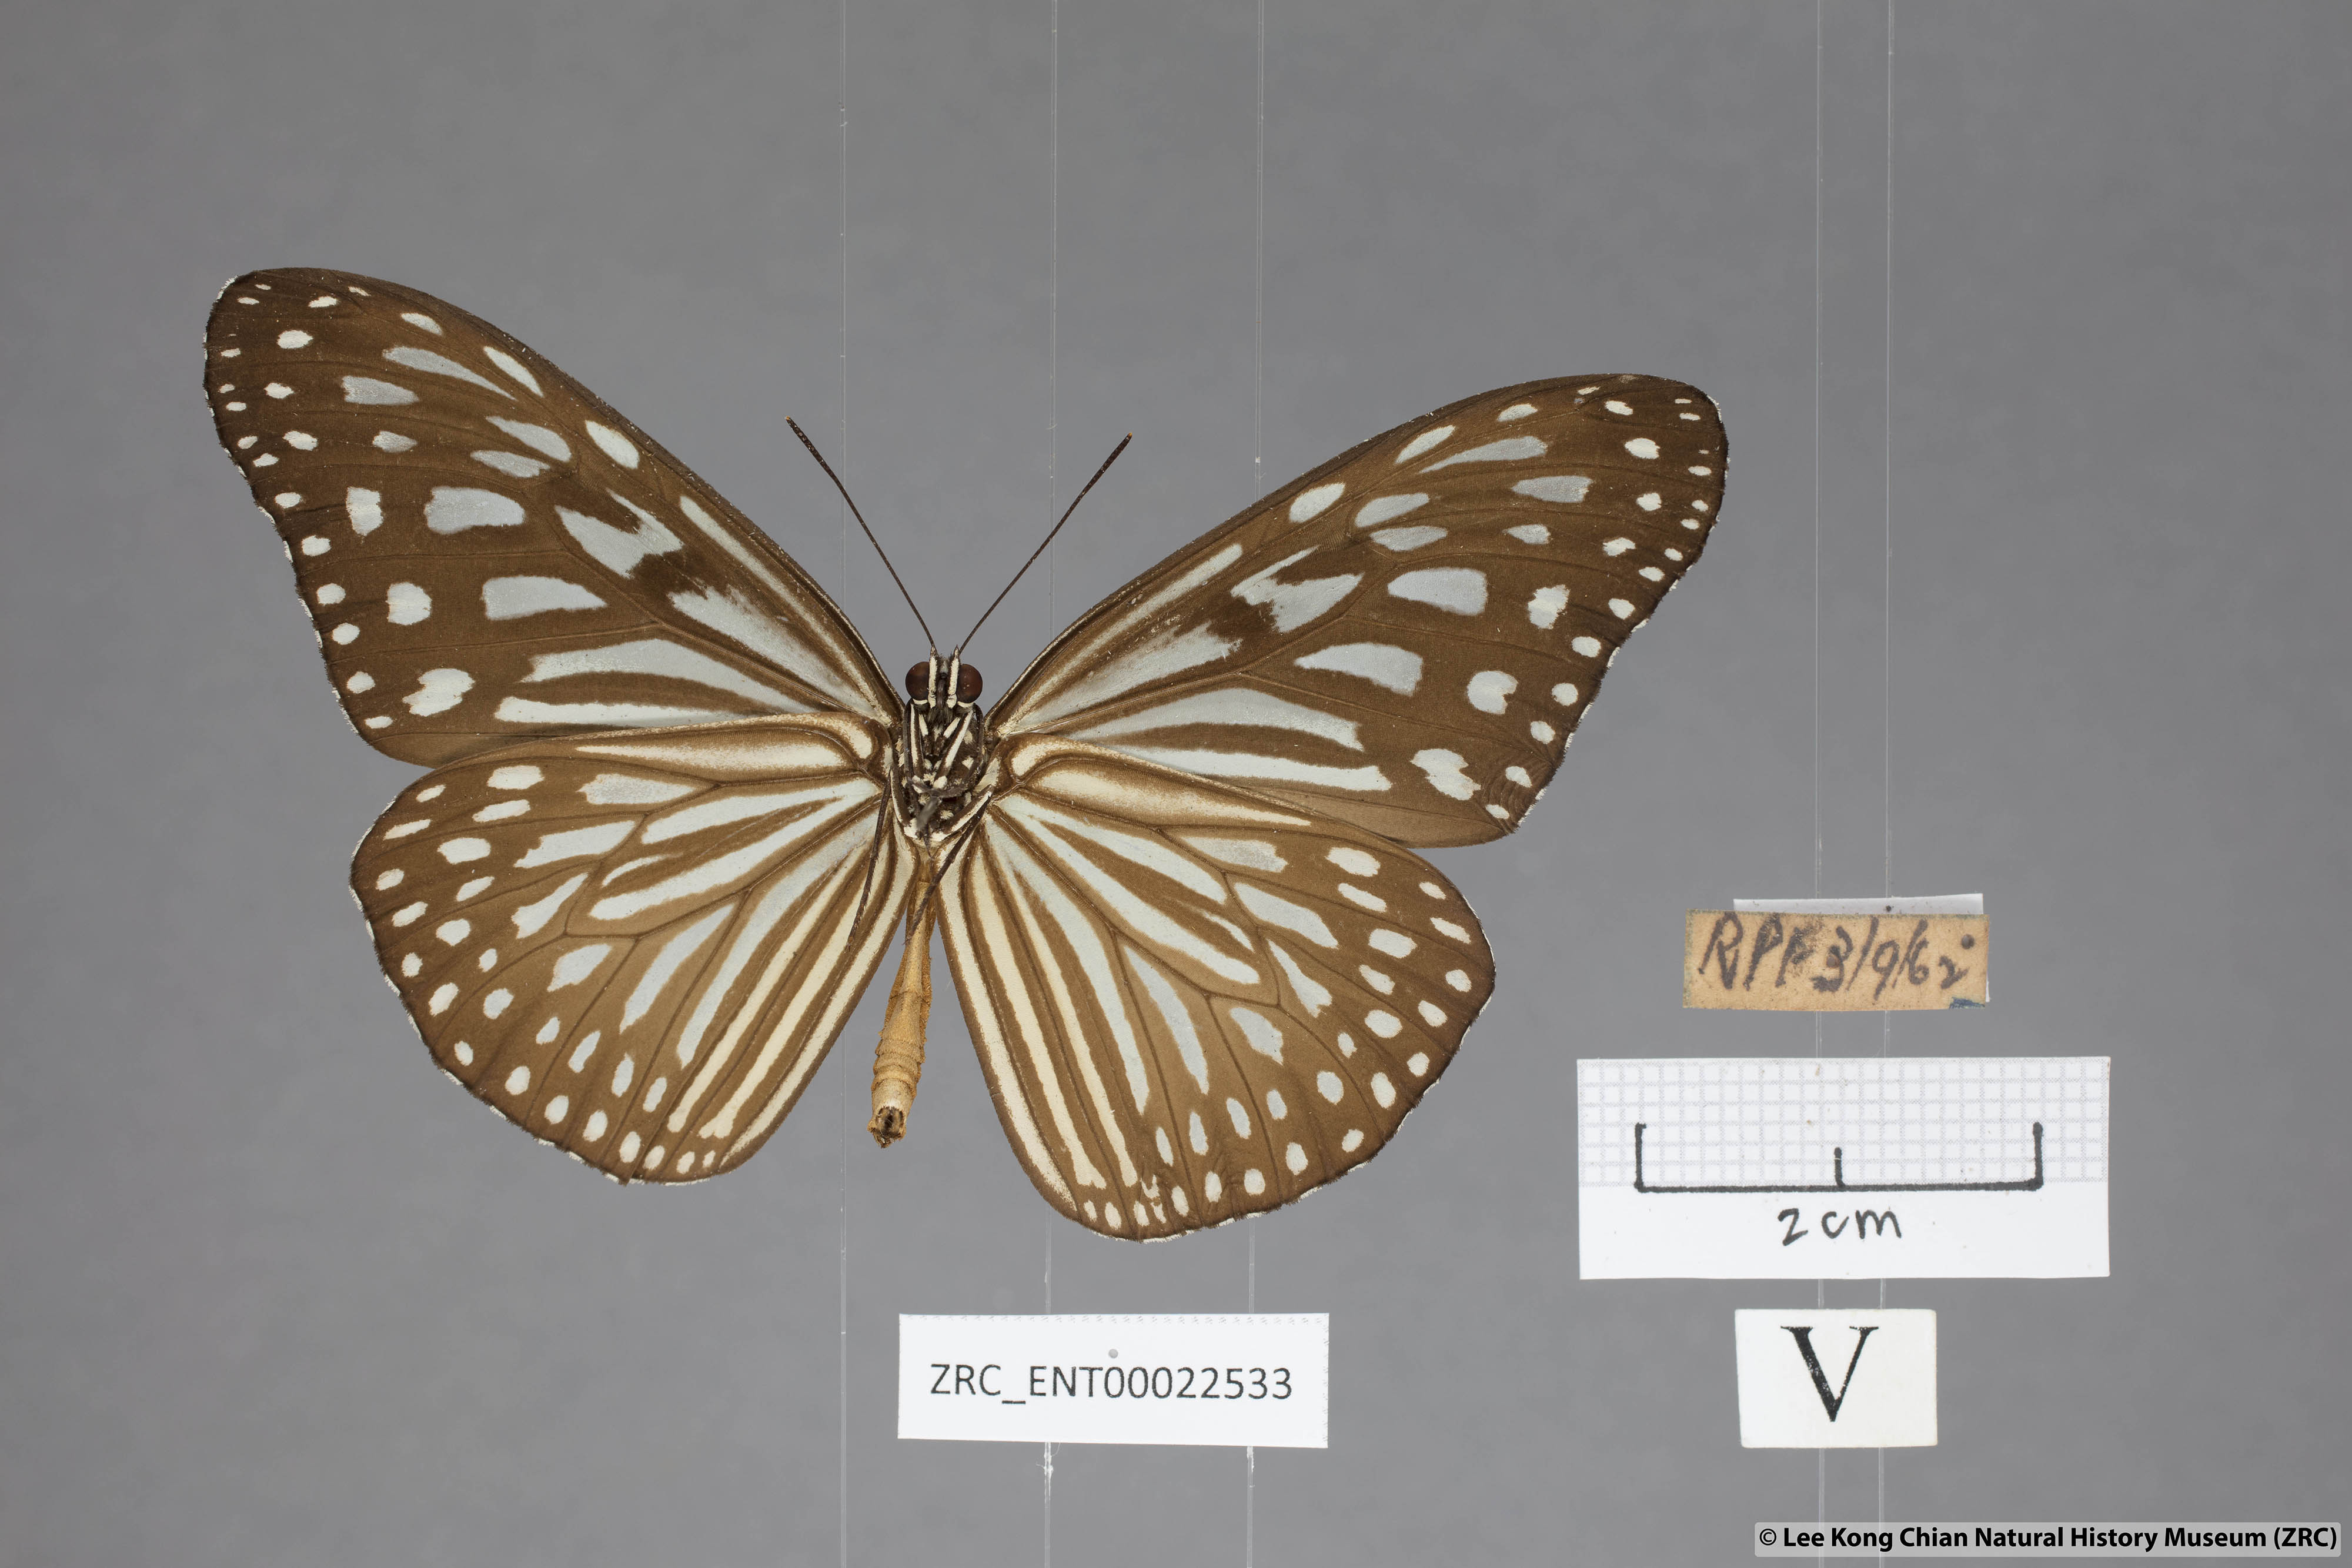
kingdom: Animalia
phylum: Arthropoda
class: Insecta
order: Lepidoptera
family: Nymphalidae
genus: Ideopsis
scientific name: Ideopsis vulgaris
